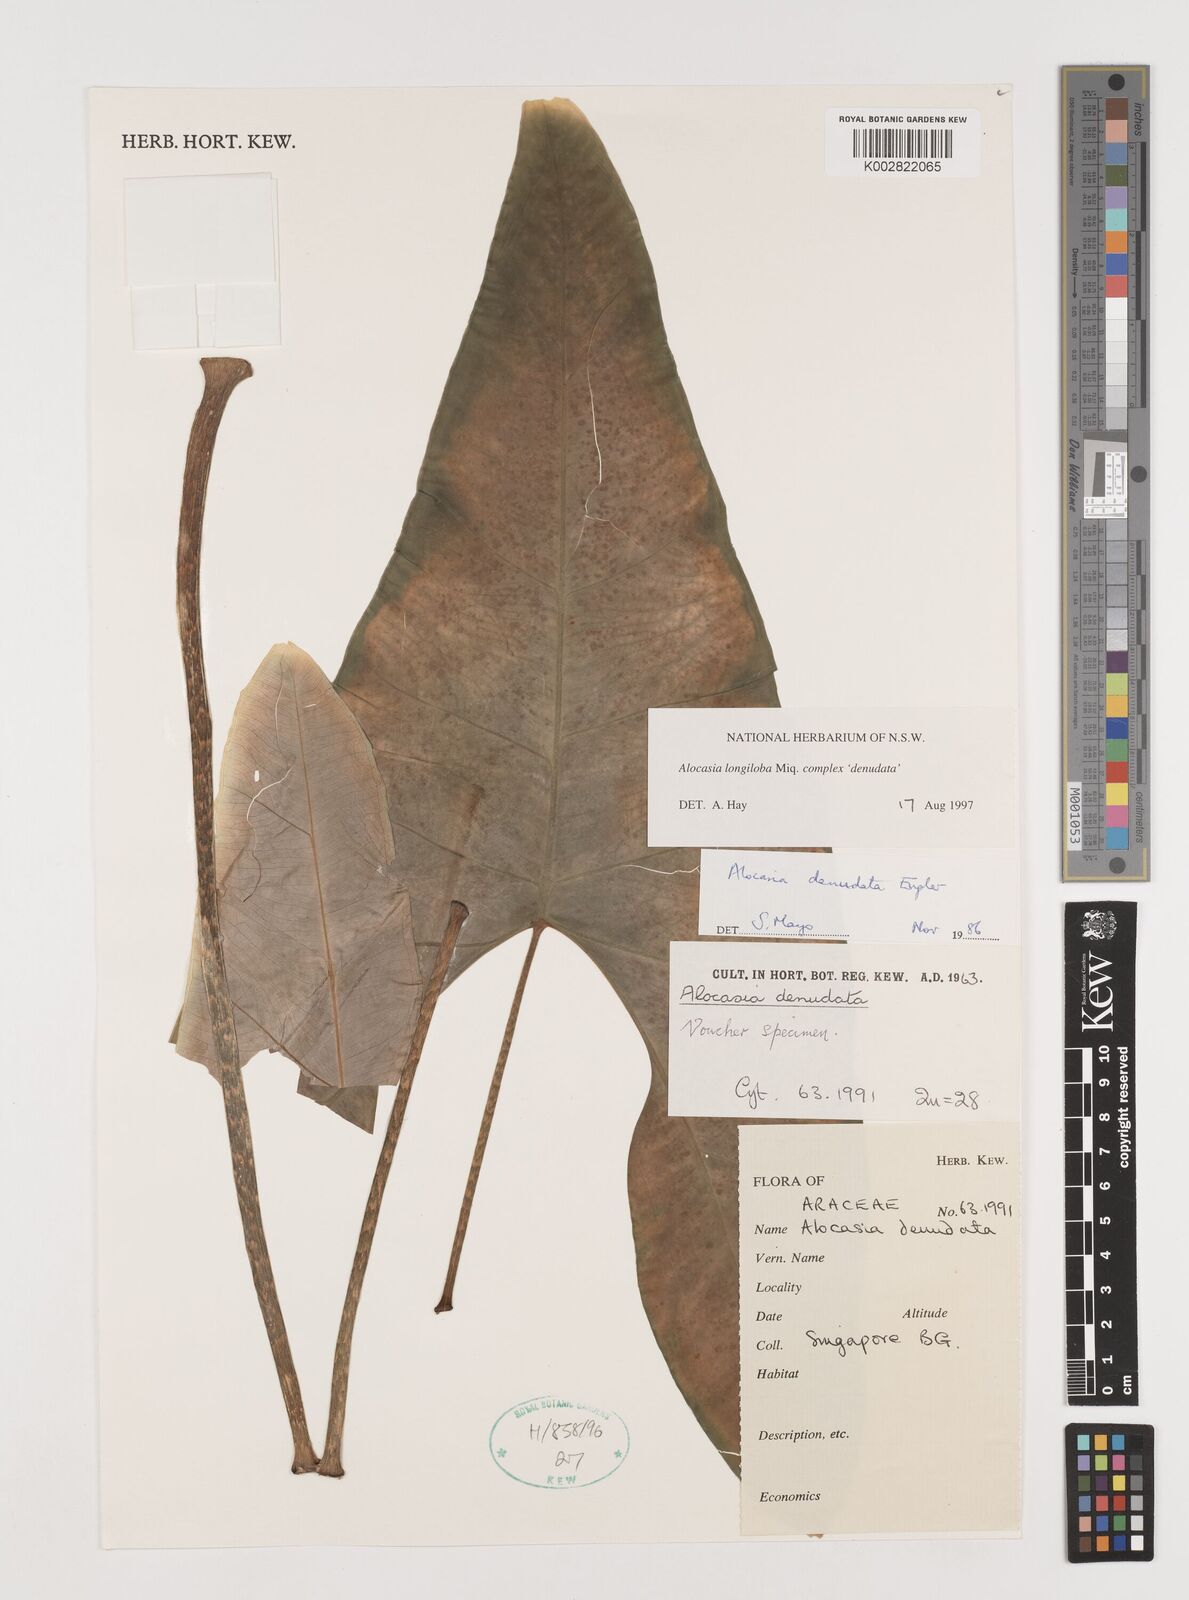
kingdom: Plantae
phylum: Tracheophyta
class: Liliopsida
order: Alismatales
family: Araceae
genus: Alocasia
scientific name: Alocasia longiloba
